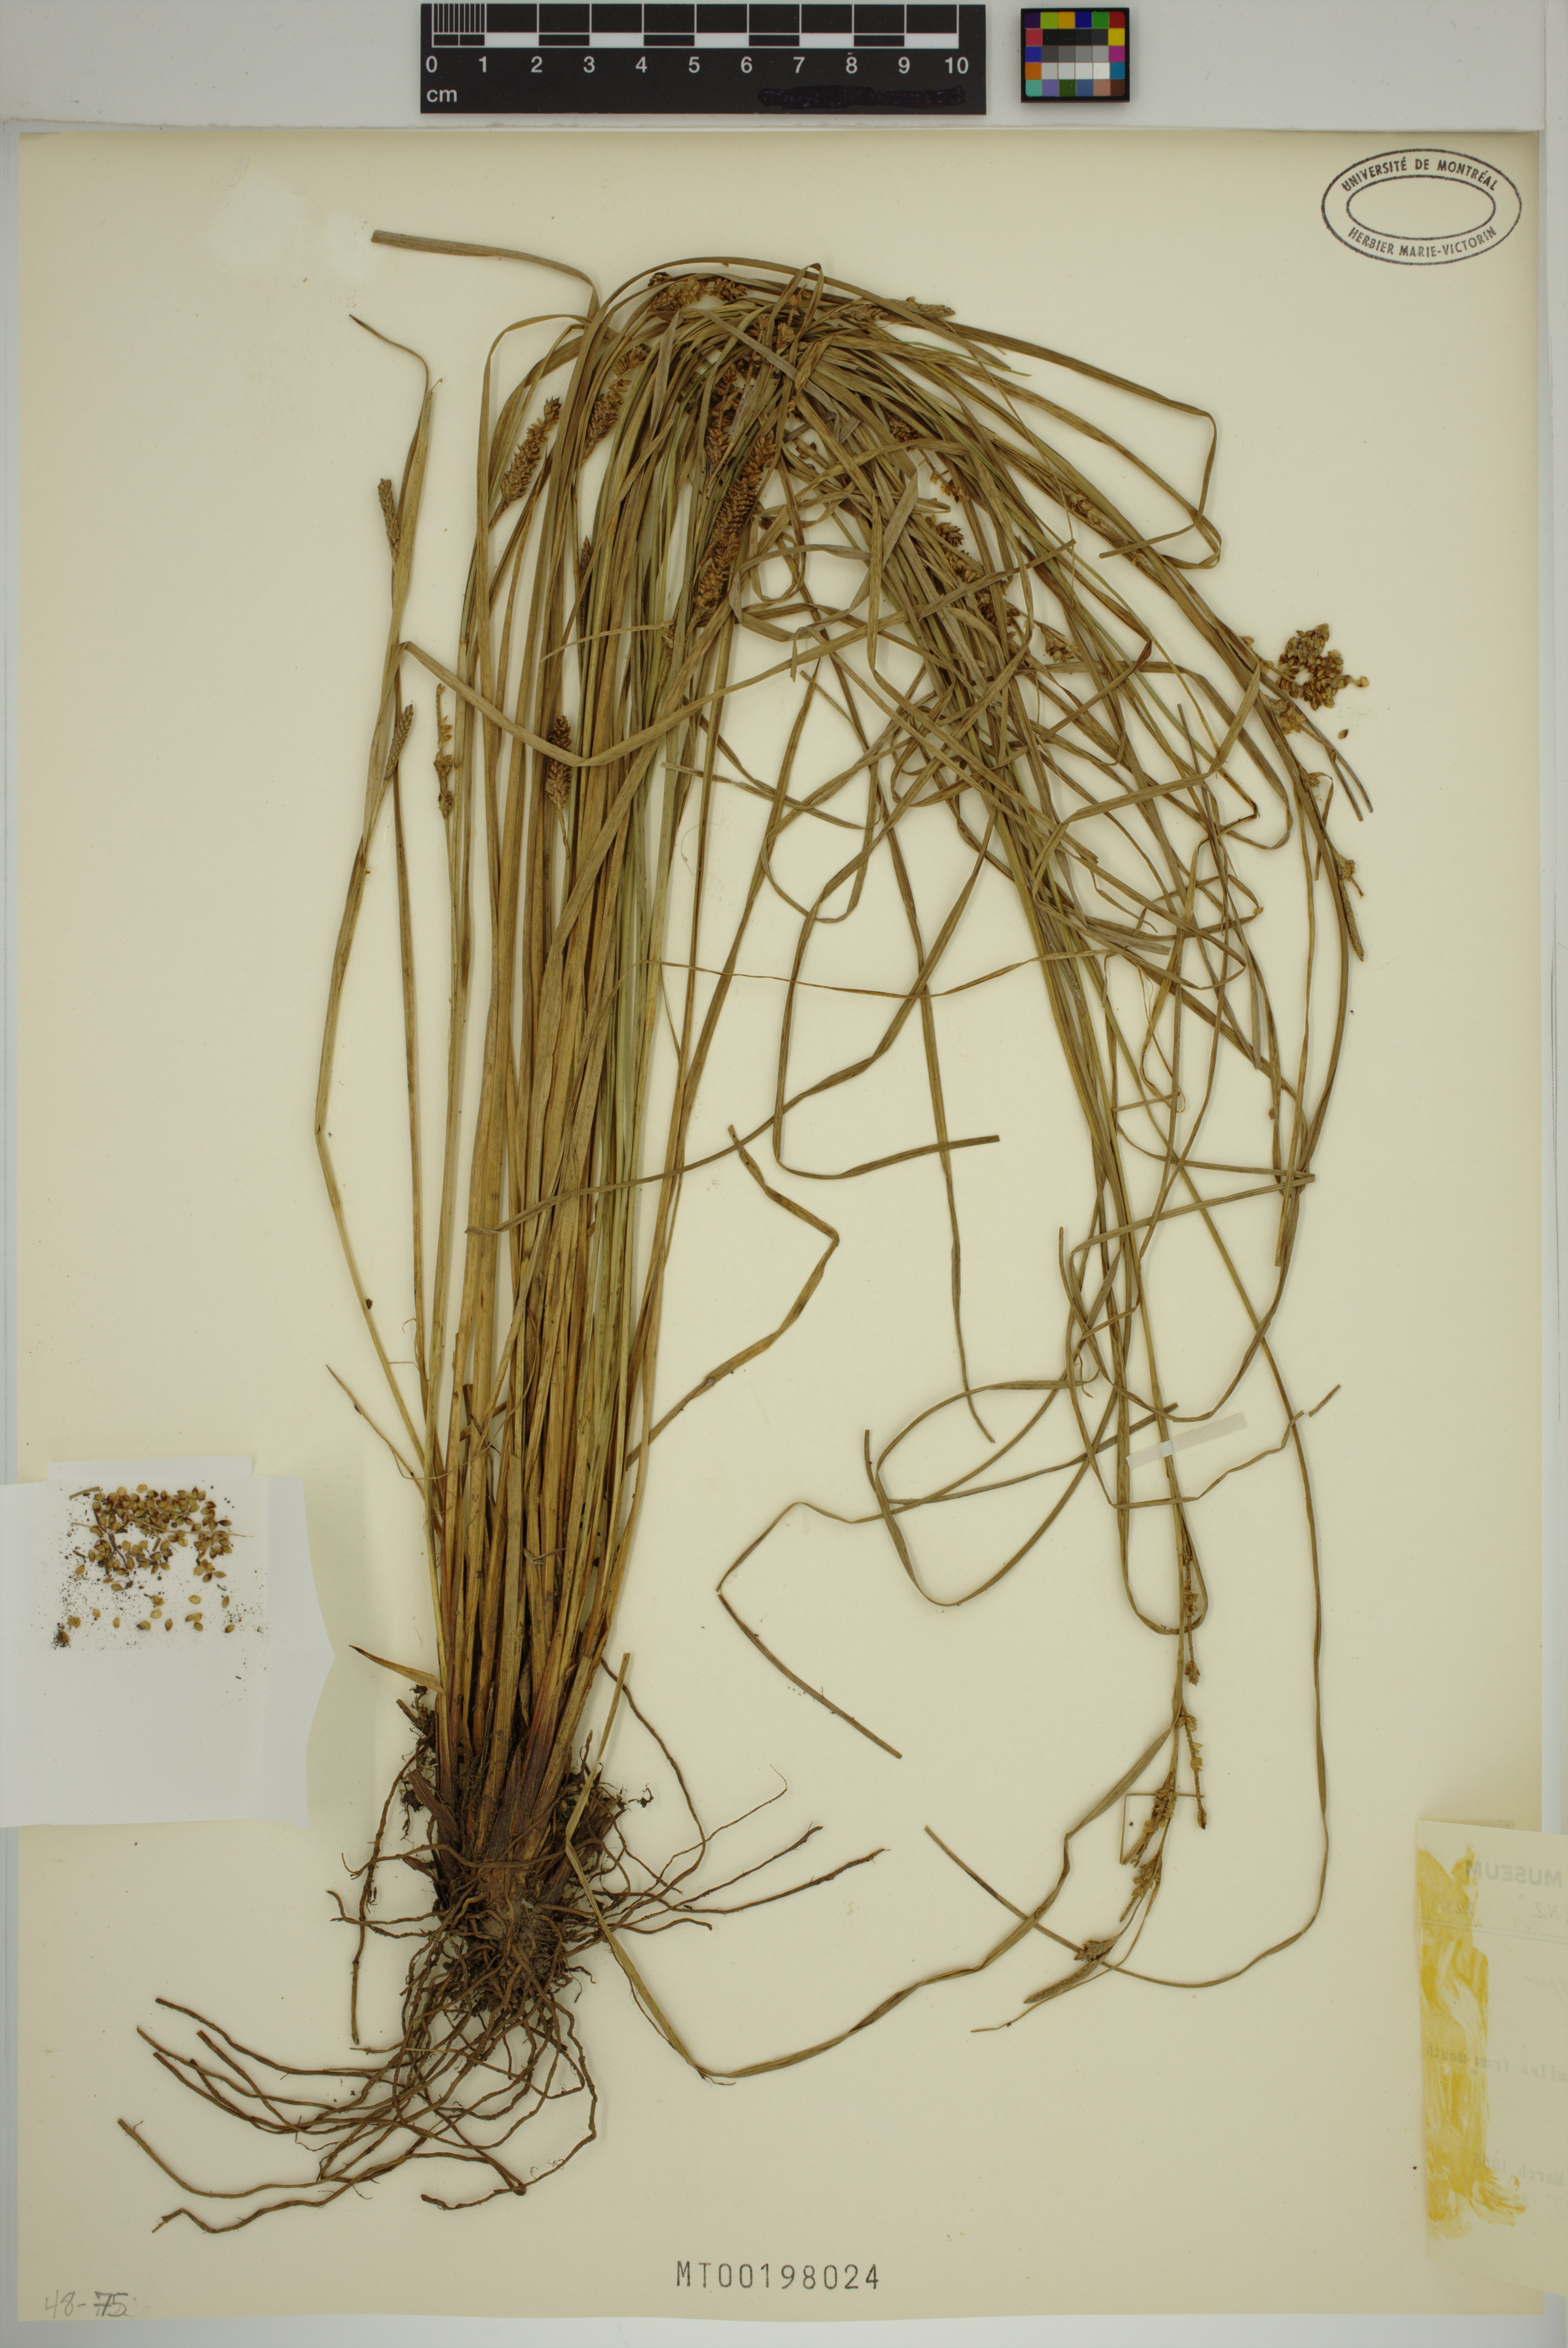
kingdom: Plantae
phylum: Tracheophyta
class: Liliopsida
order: Poales
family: Cyperaceae
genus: Carex
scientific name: Carex dipsacea
